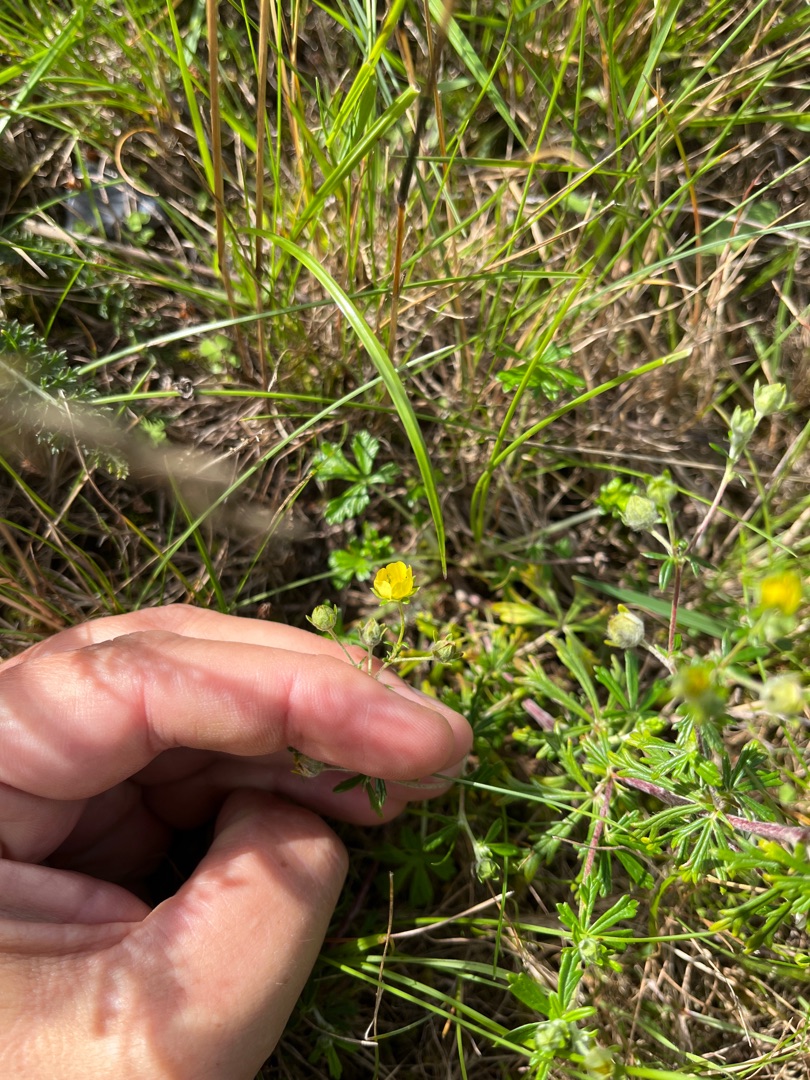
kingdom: Plantae
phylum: Tracheophyta
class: Magnoliopsida
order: Rosales
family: Rosaceae
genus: Potentilla
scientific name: Potentilla argentea
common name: Sølv-potentil
